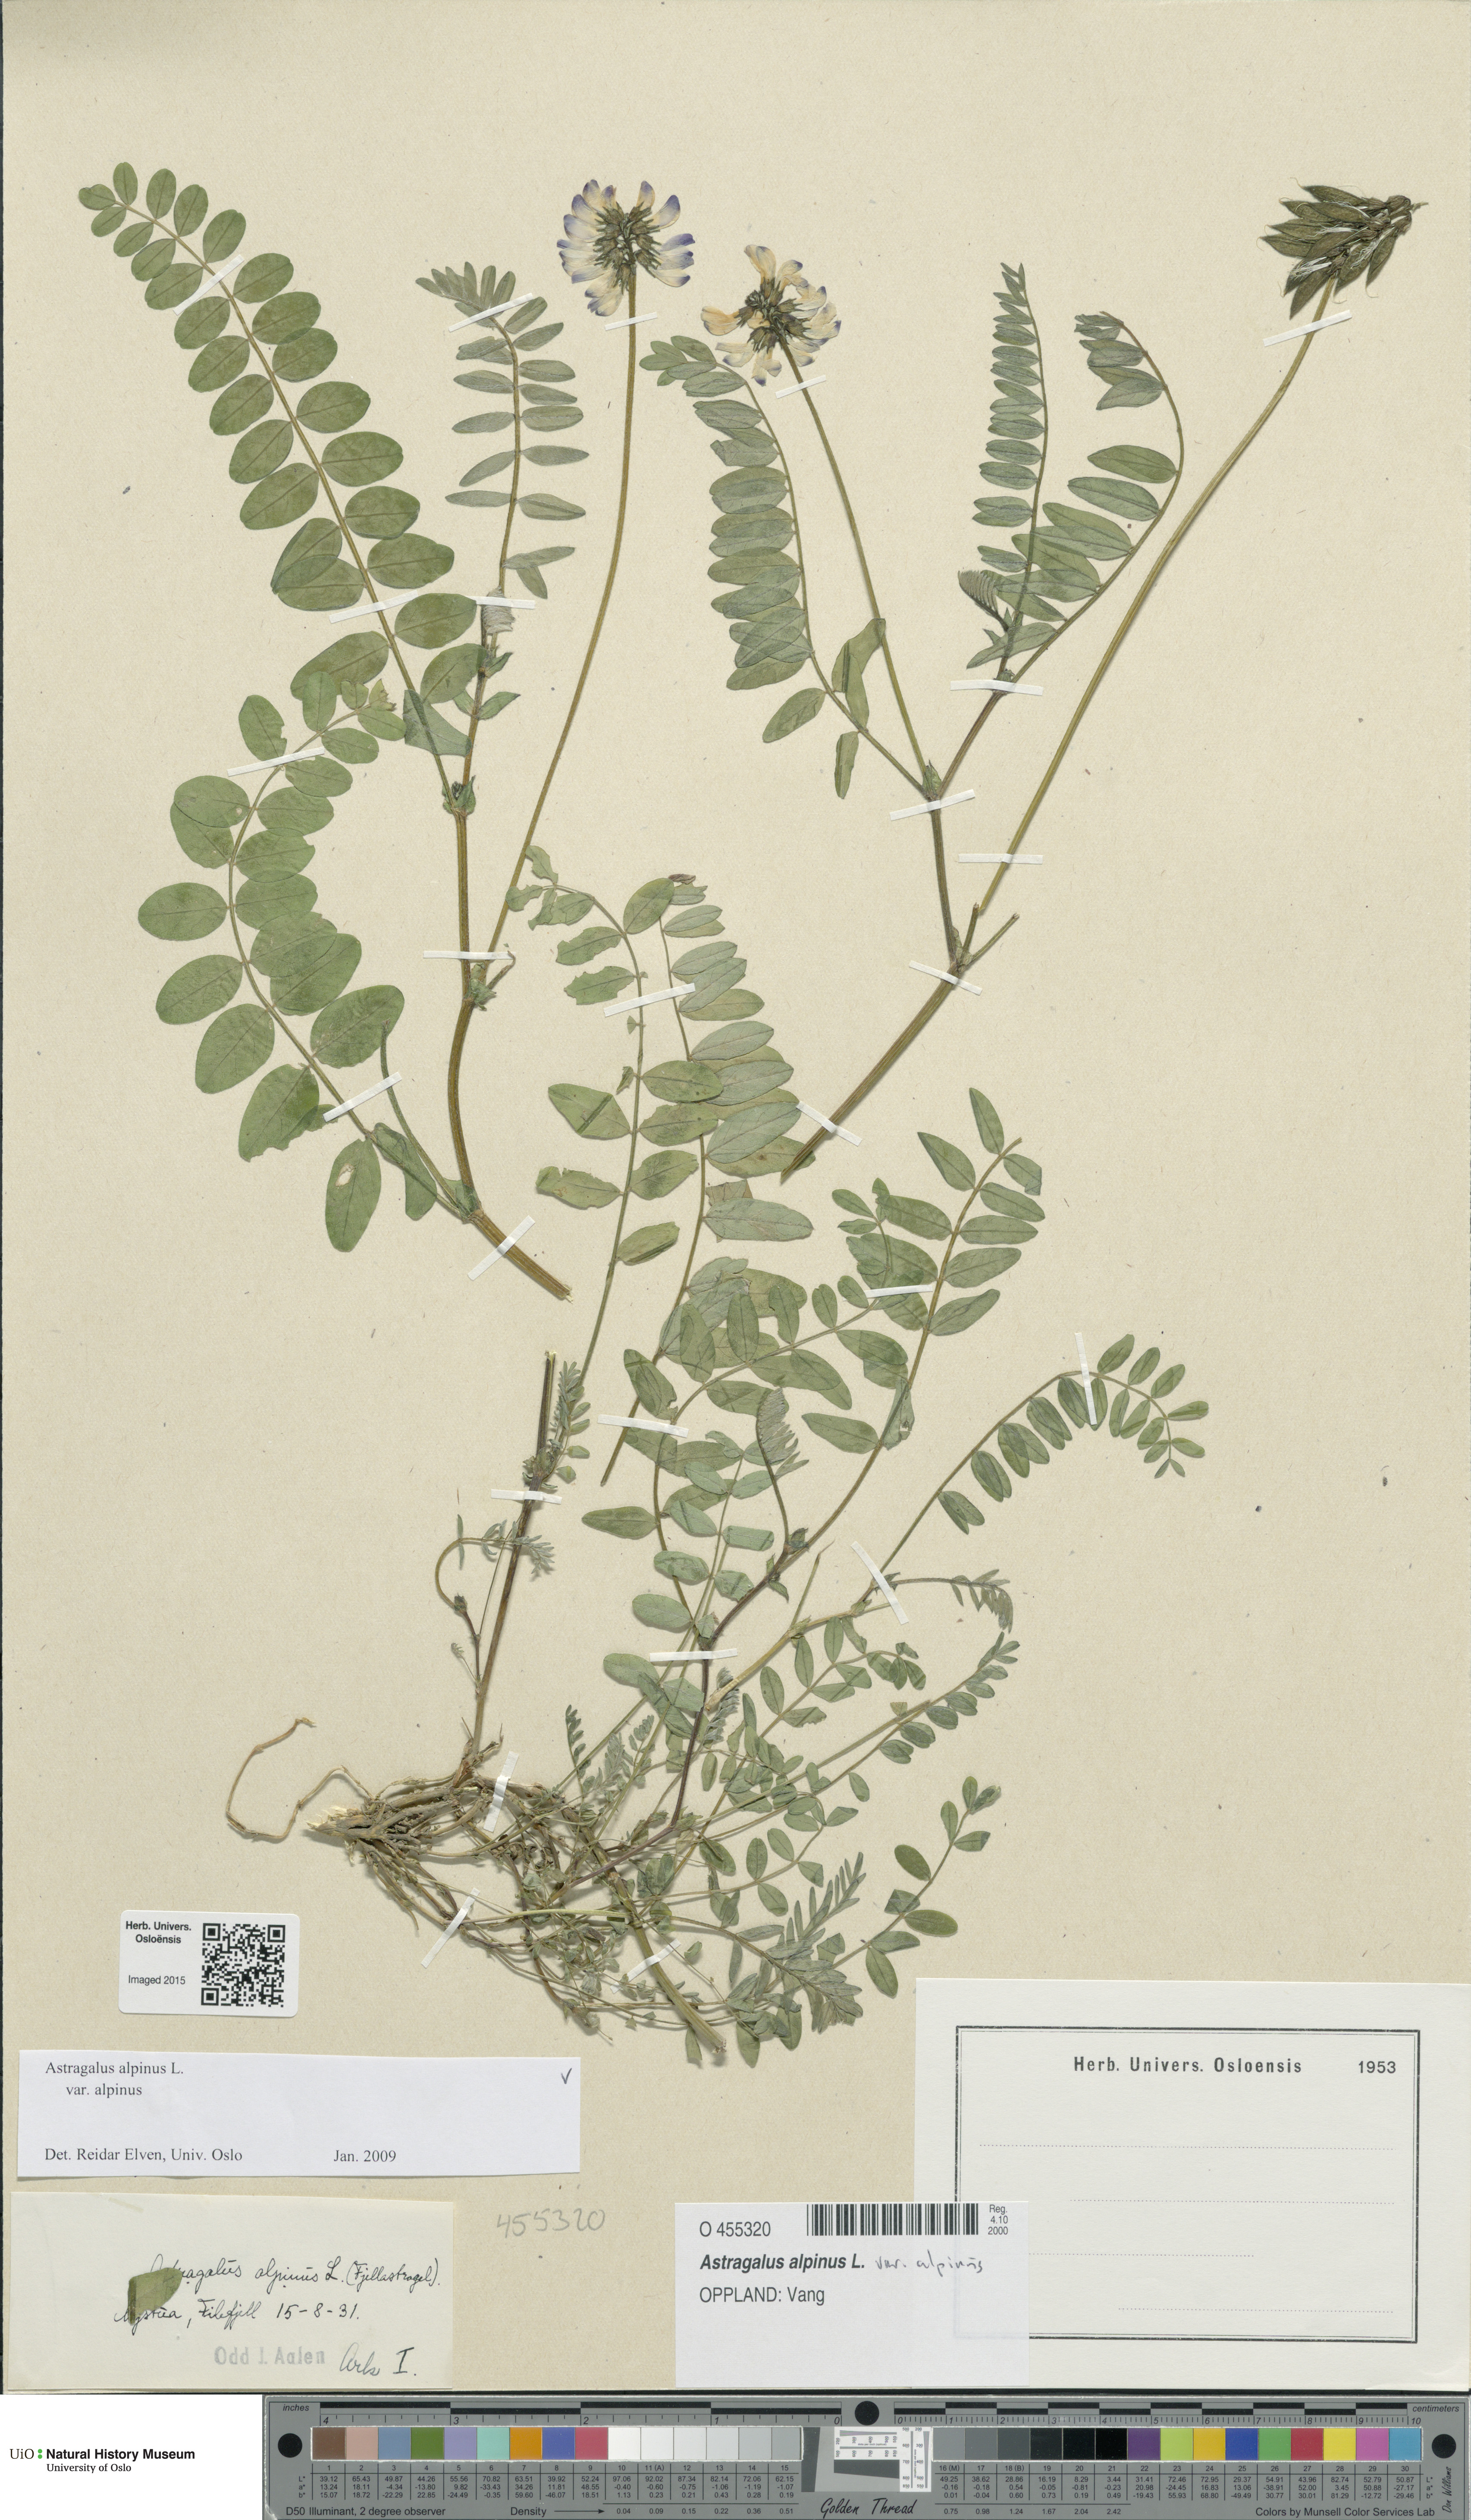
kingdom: Plantae
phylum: Tracheophyta
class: Magnoliopsida
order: Fabales
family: Fabaceae
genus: Astragalus
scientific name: Astragalus alpinus
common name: Alpine milk-vetch
